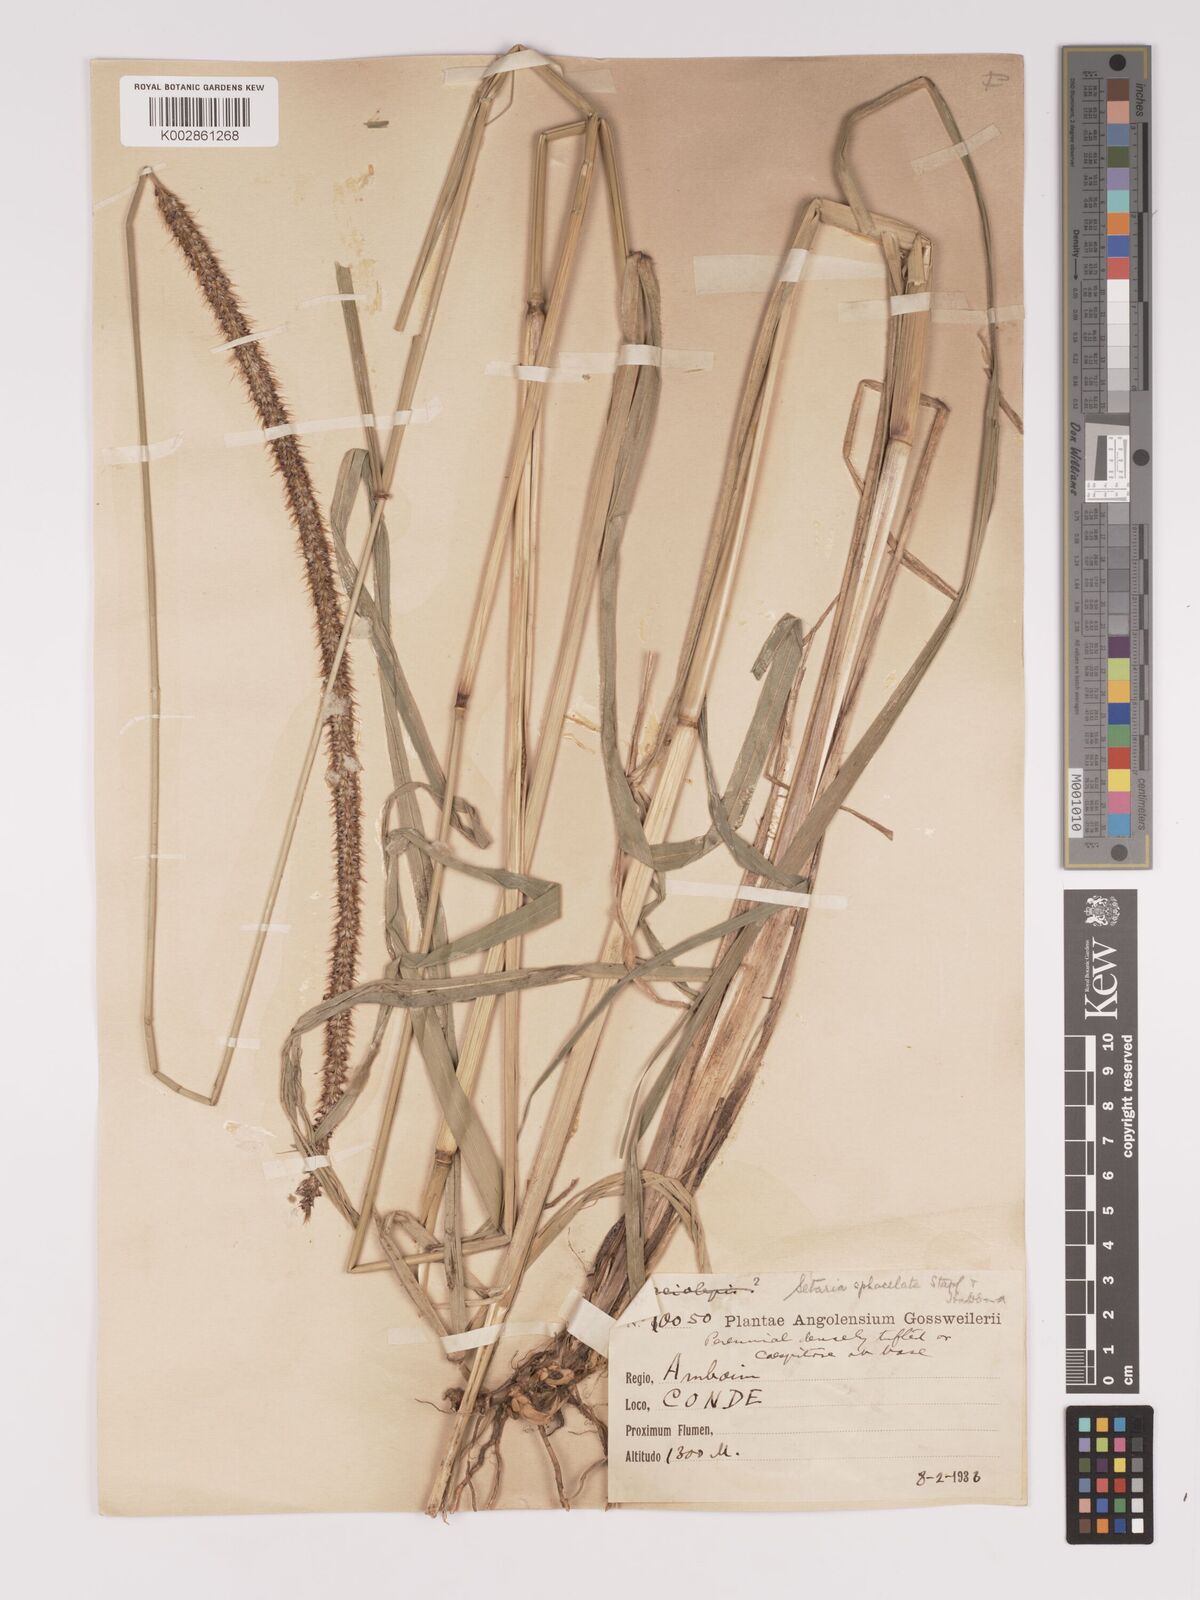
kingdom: Plantae
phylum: Tracheophyta
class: Liliopsida
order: Poales
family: Poaceae
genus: Setaria
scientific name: Setaria sphacelata
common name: African bristlegrass
